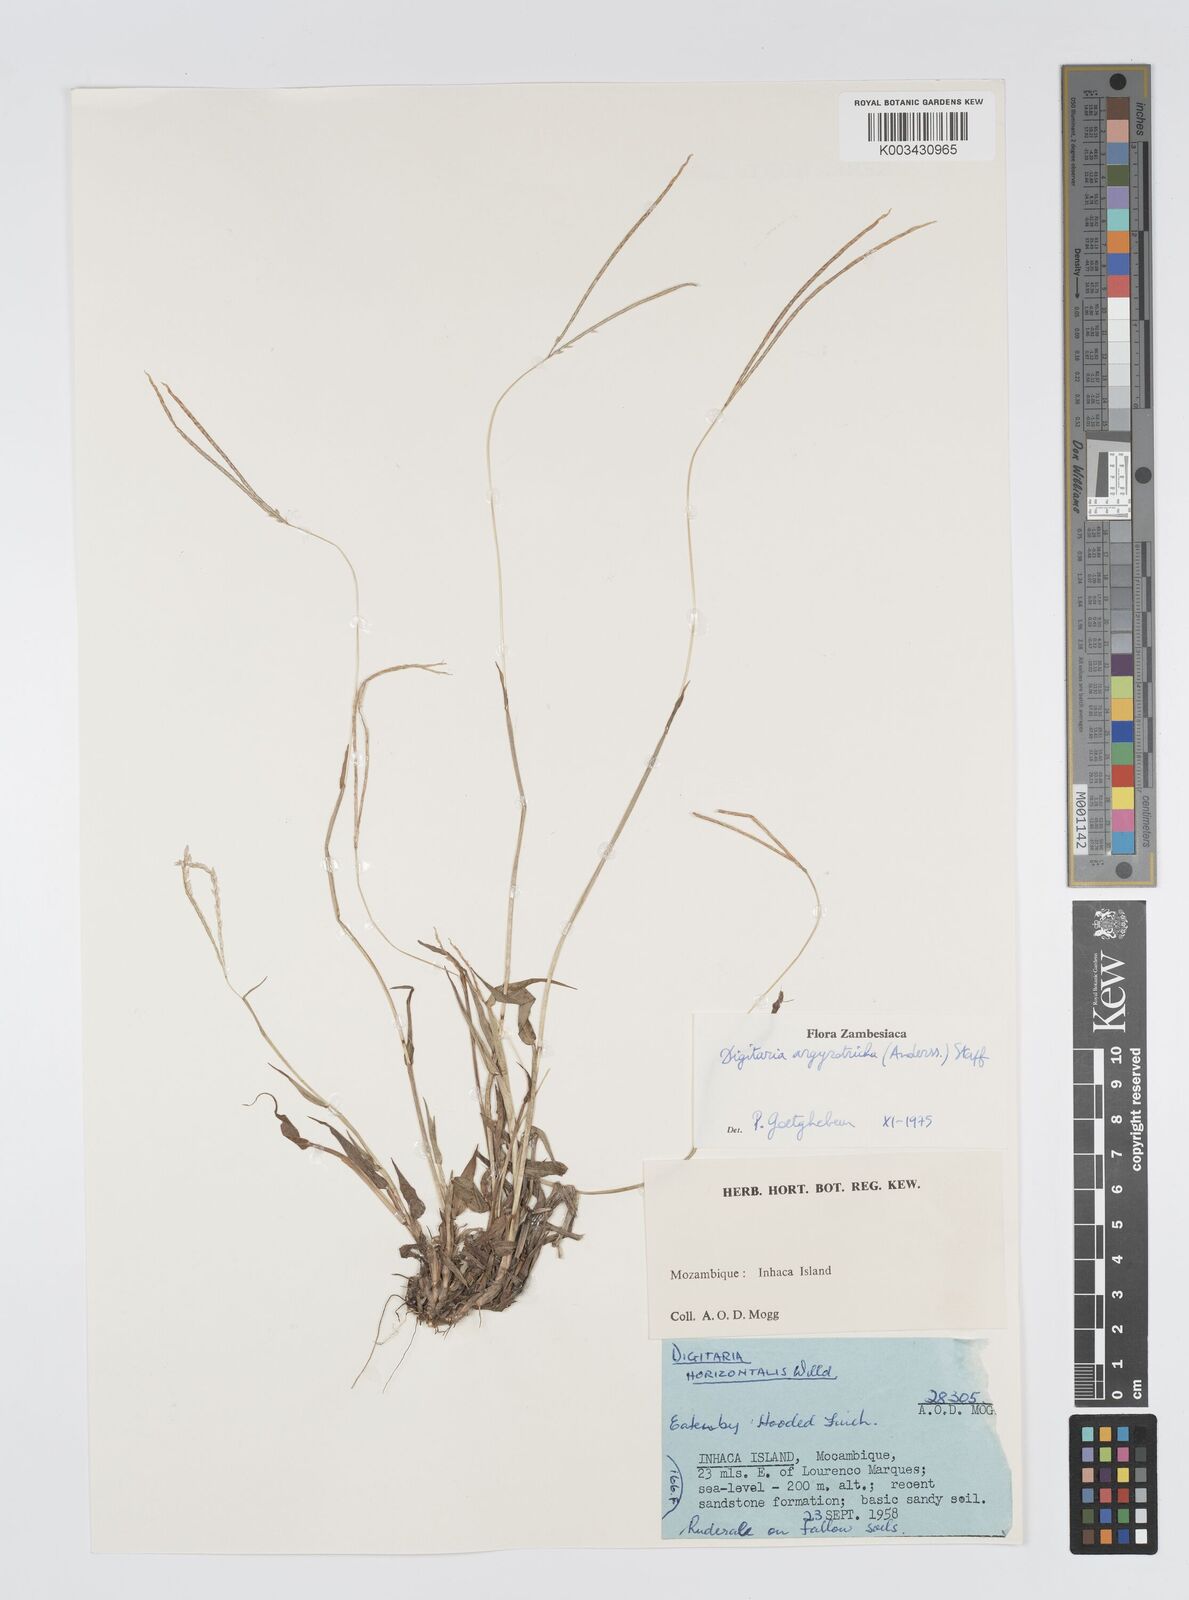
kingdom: Plantae
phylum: Tracheophyta
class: Liliopsida
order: Poales
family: Poaceae
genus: Digitaria
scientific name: Digitaria argyrotricha
